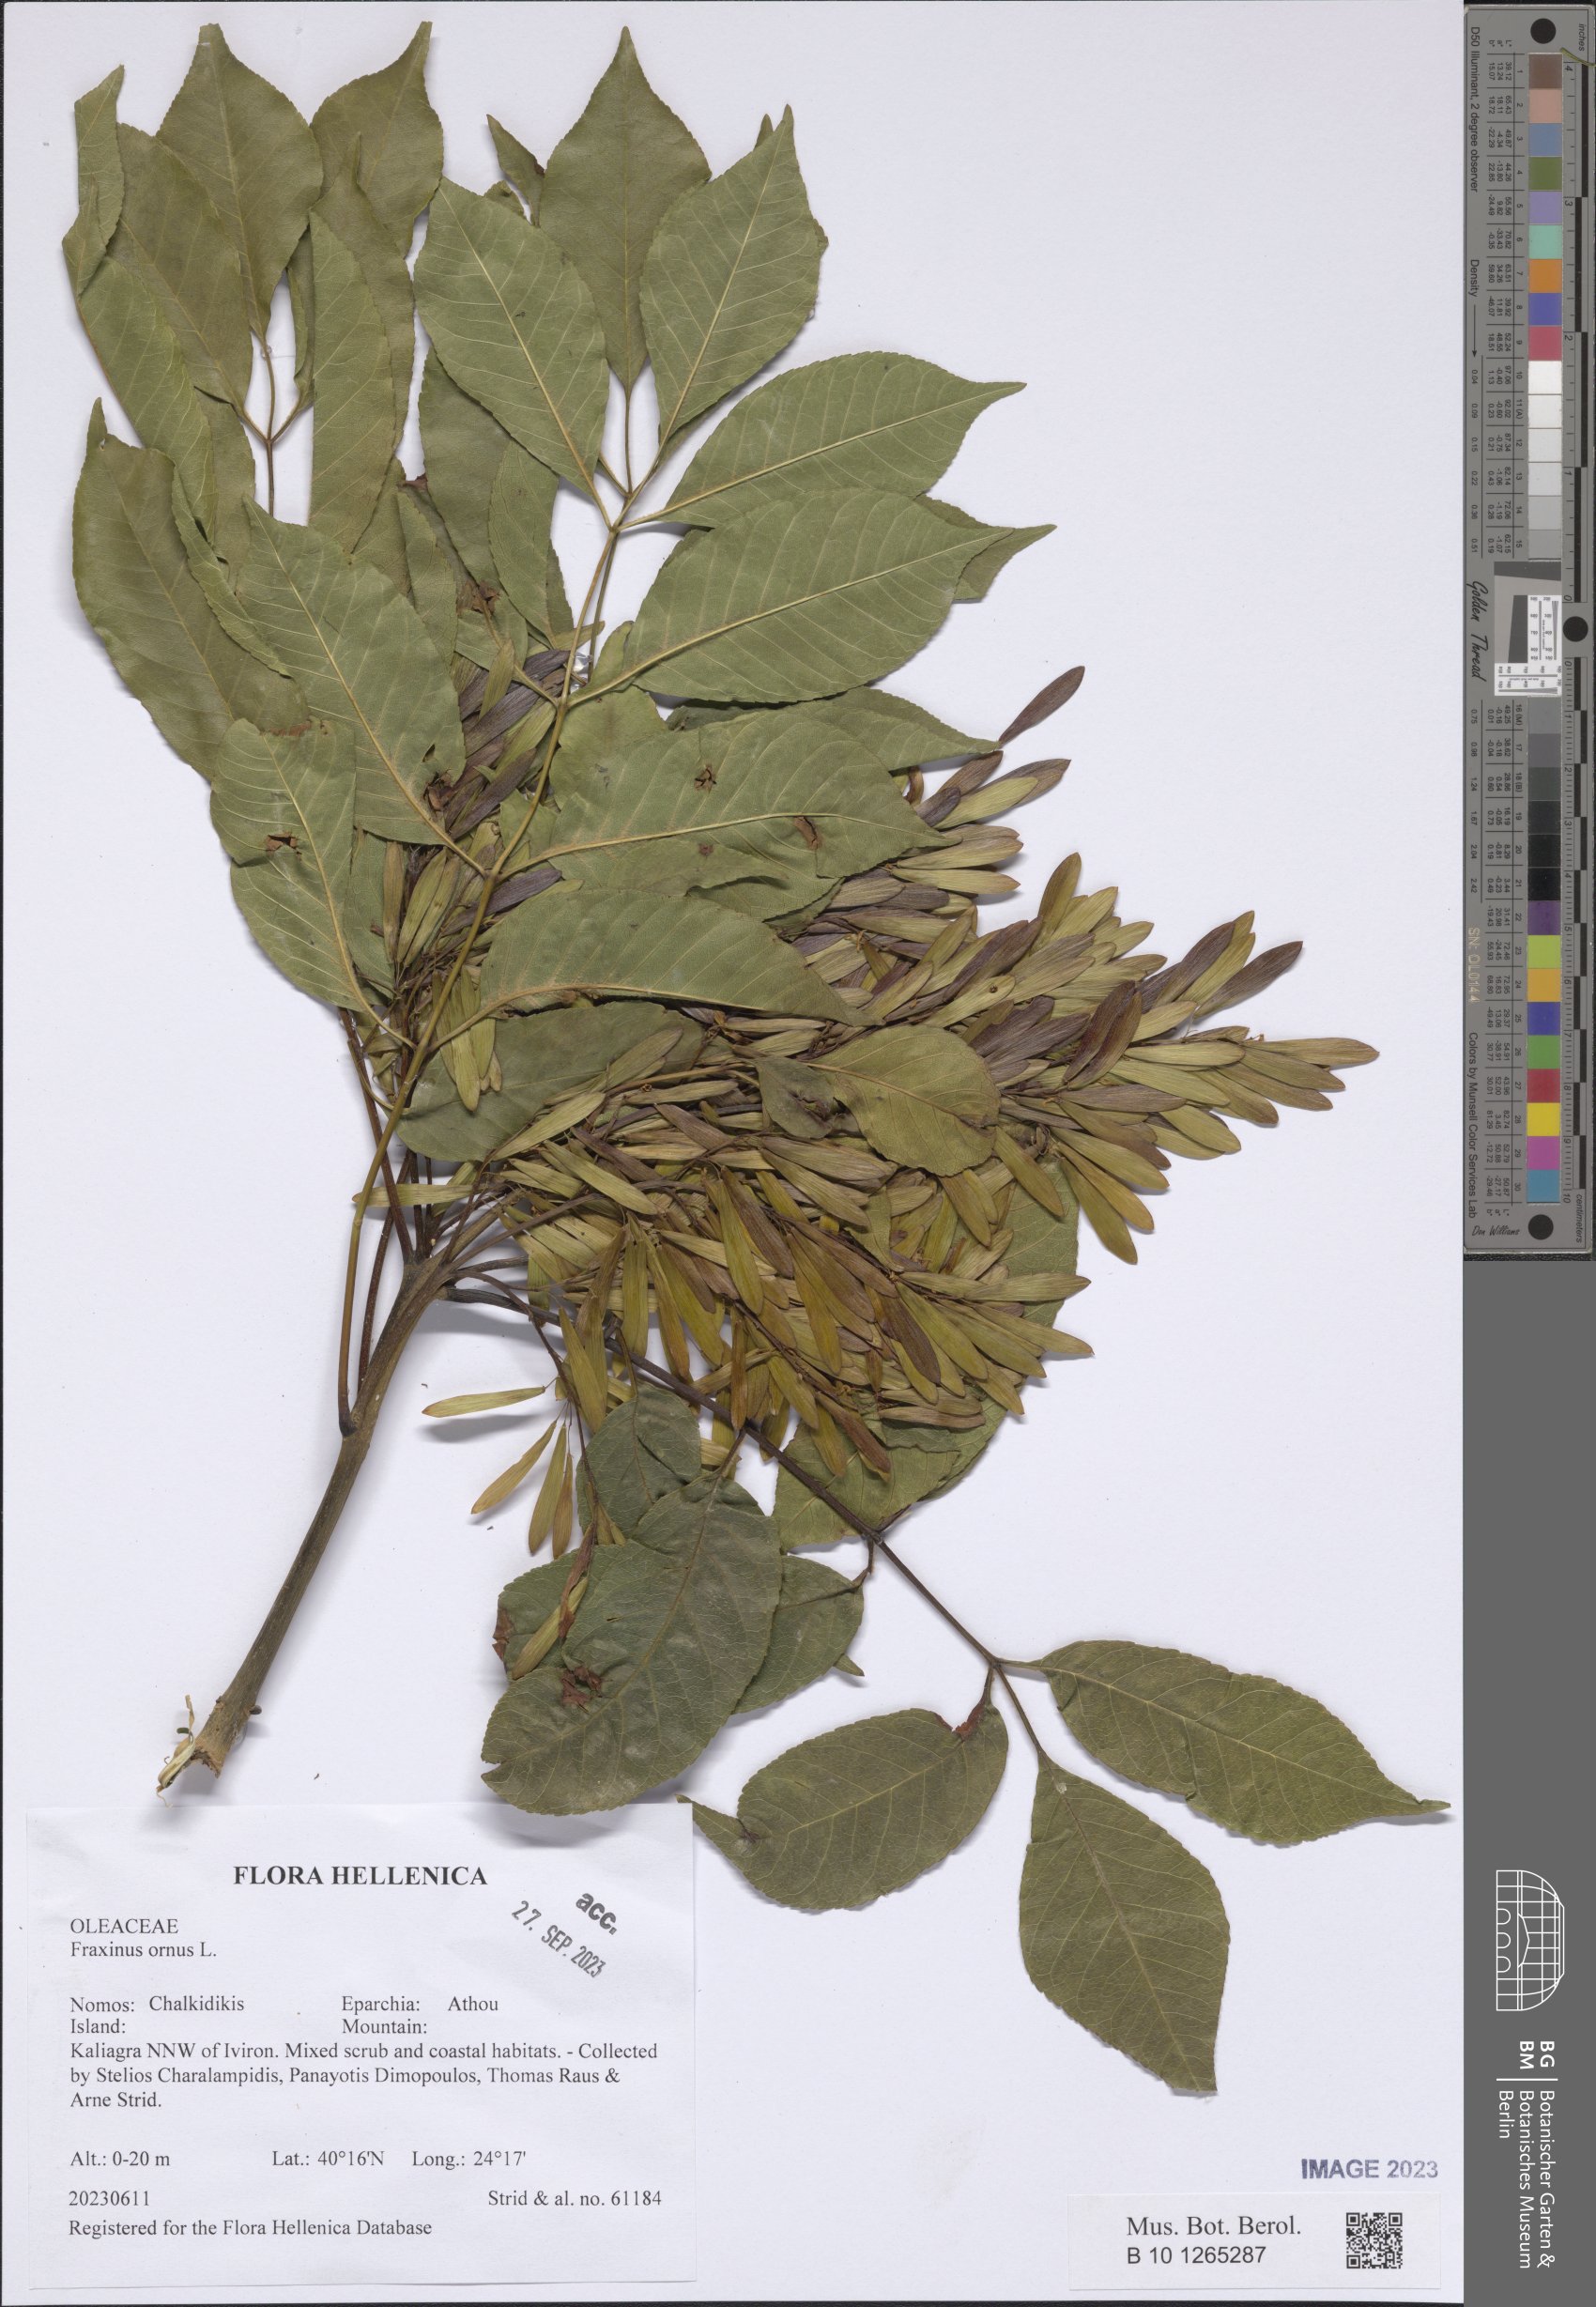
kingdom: Plantae
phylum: Tracheophyta
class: Magnoliopsida
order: Lamiales
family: Oleaceae
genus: Fraxinus
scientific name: Fraxinus ornus
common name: Manna ash
